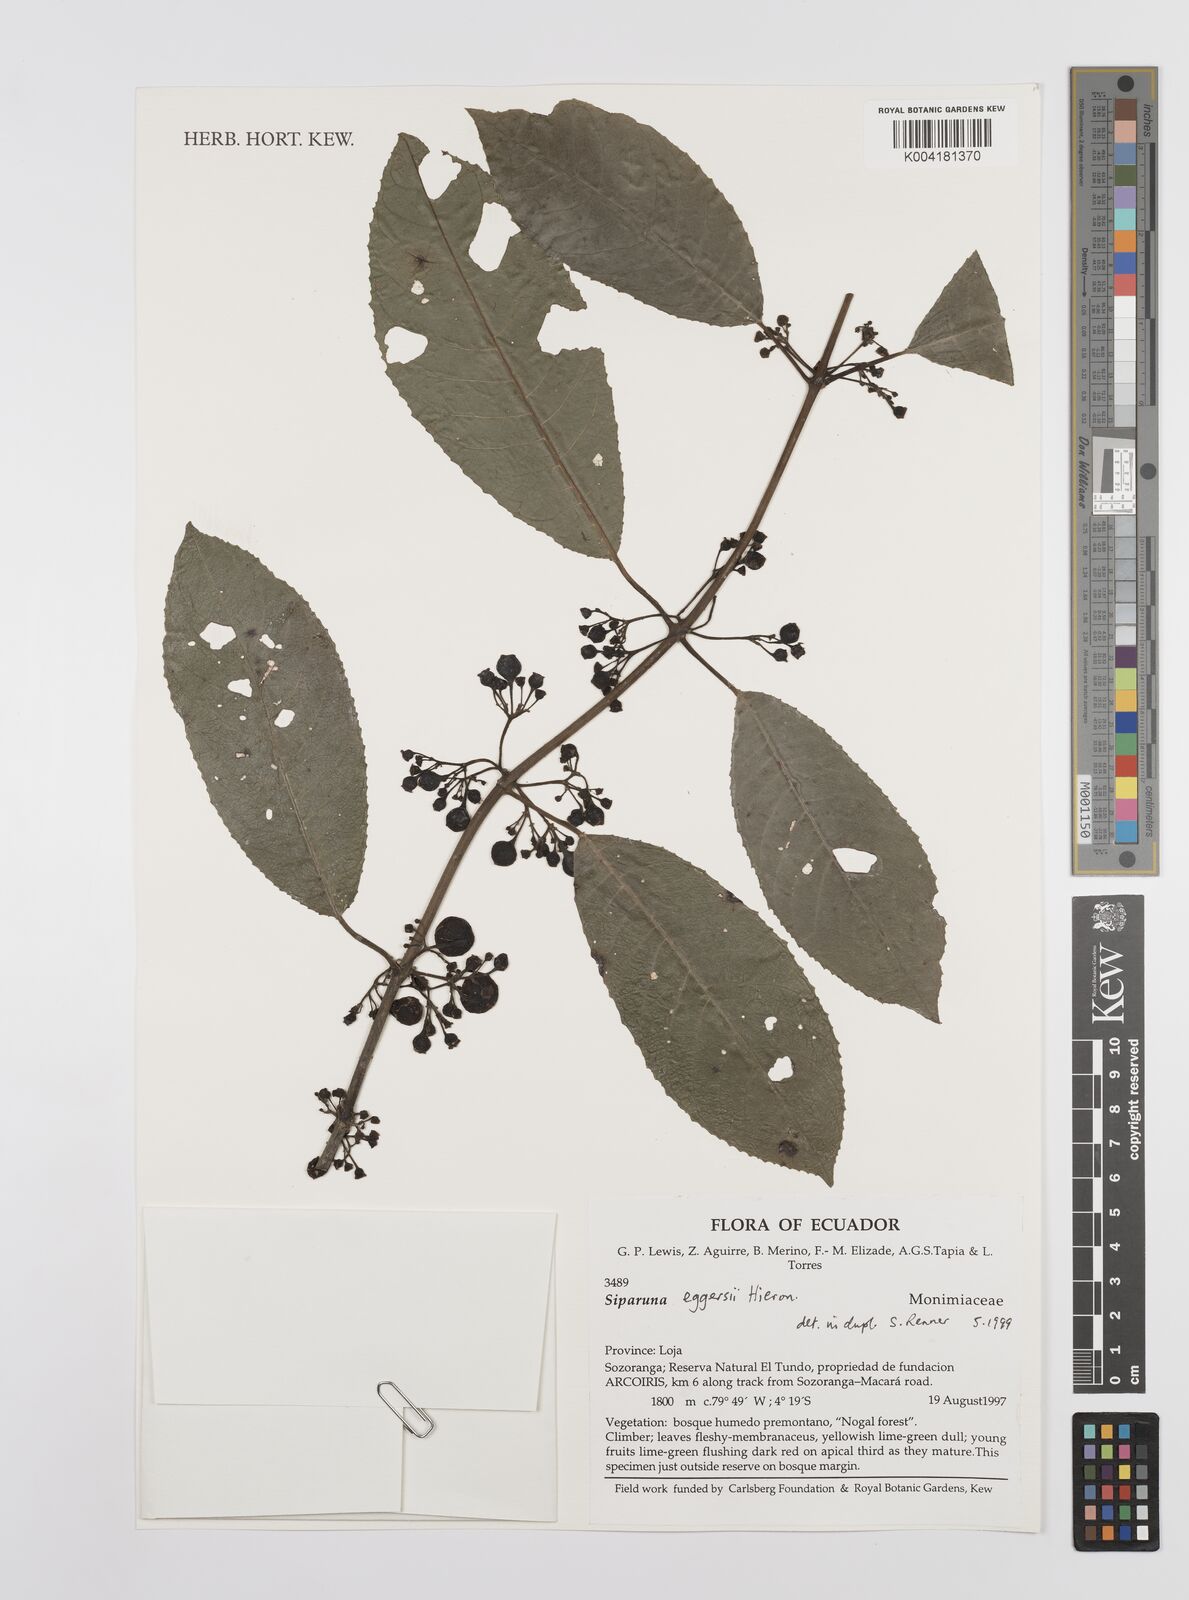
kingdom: Plantae
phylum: Tracheophyta
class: Magnoliopsida
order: Laurales
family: Siparunaceae
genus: Siparuna
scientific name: Siparuna eggersii
